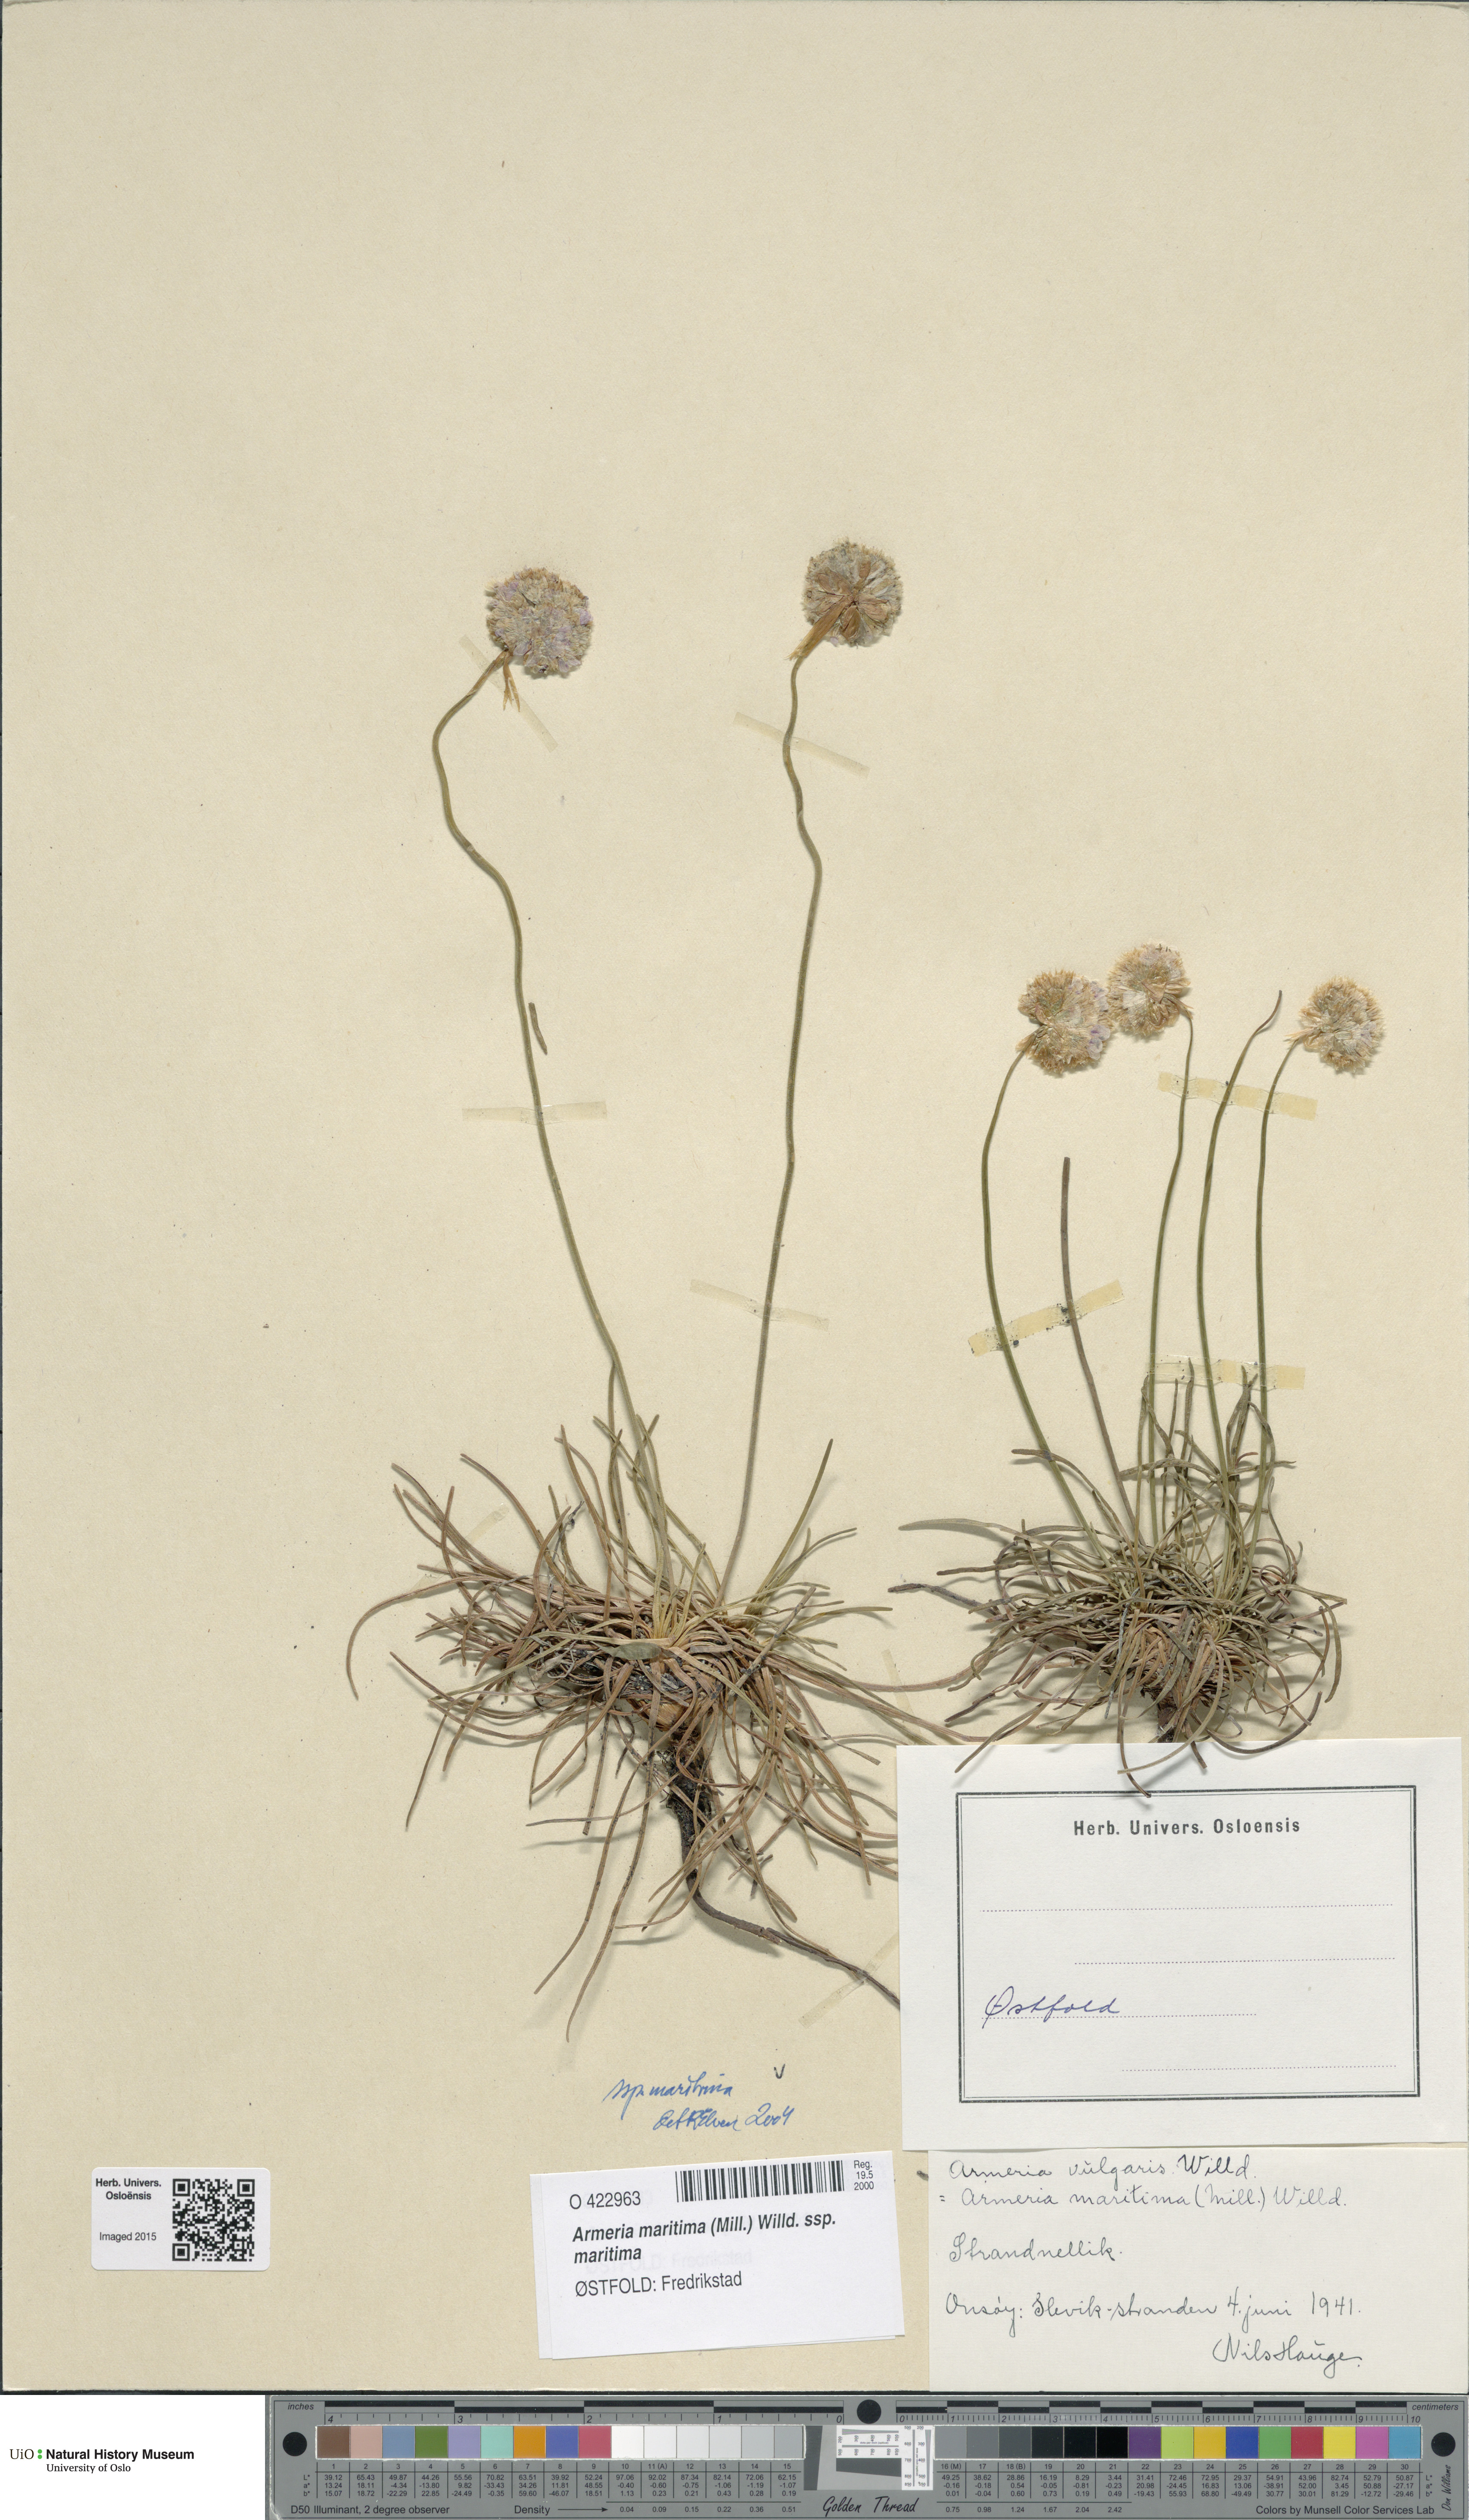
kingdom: Plantae
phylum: Tracheophyta
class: Magnoliopsida
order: Caryophyllales
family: Plumbaginaceae
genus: Armeria
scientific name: Armeria maritima
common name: Thrift
